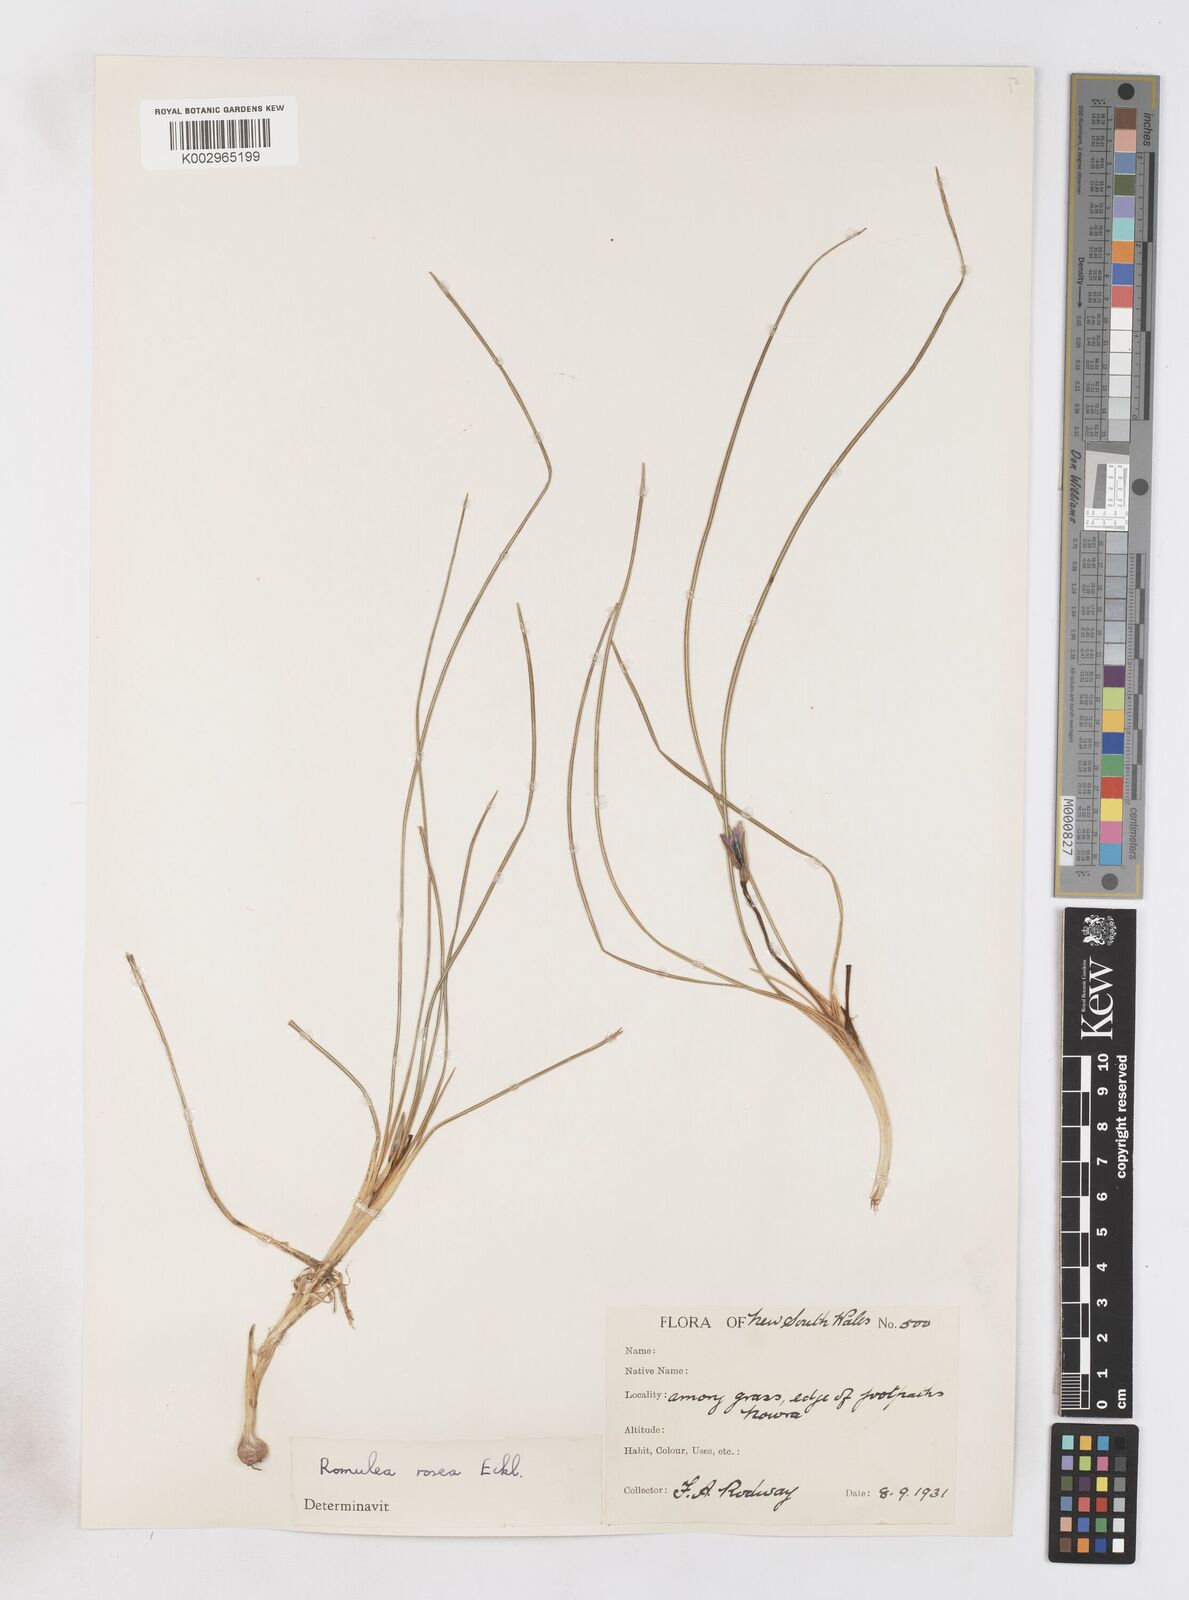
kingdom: Plantae
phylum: Tracheophyta
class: Liliopsida
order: Asparagales
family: Iridaceae
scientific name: Iridaceae
